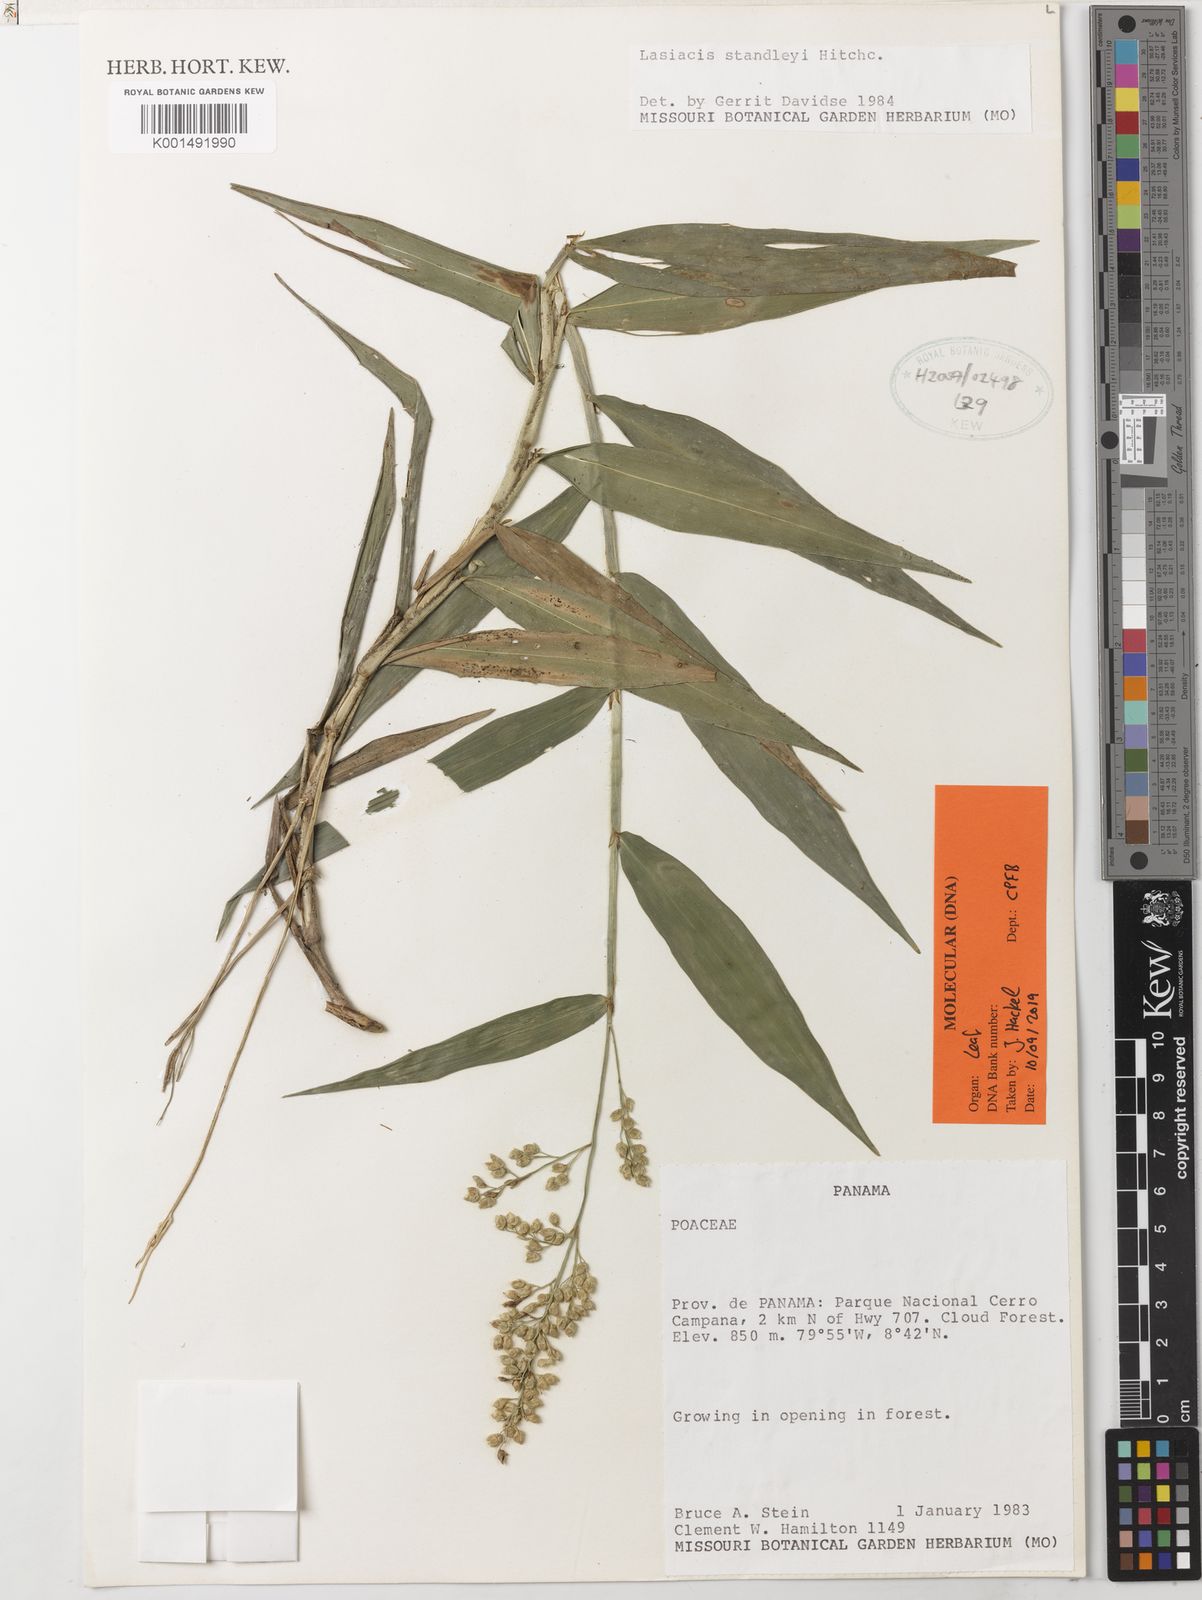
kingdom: Plantae
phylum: Tracheophyta
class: Liliopsida
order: Poales
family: Poaceae
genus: Lasiacis
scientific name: Lasiacis standleyi
